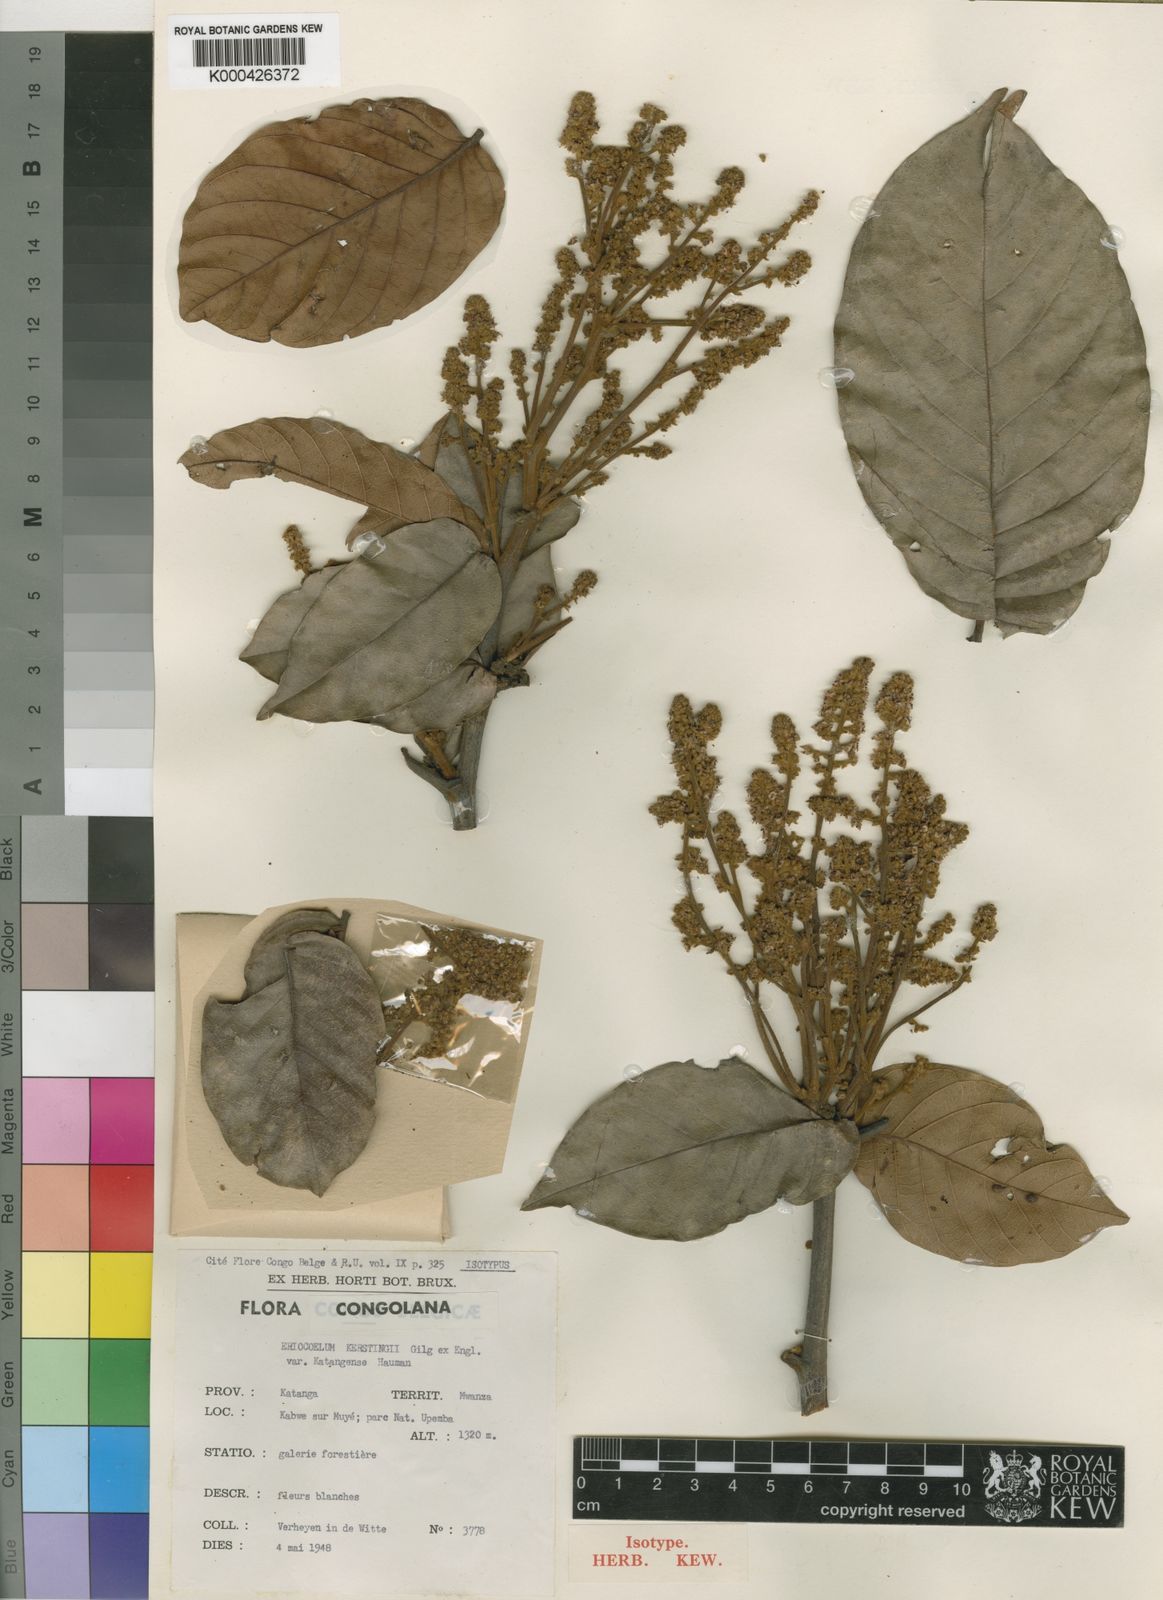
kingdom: Plantae
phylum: Tracheophyta
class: Magnoliopsida
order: Sapindales
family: Sapindaceae
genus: Eriocoelum
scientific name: Eriocoelum kerstingii
